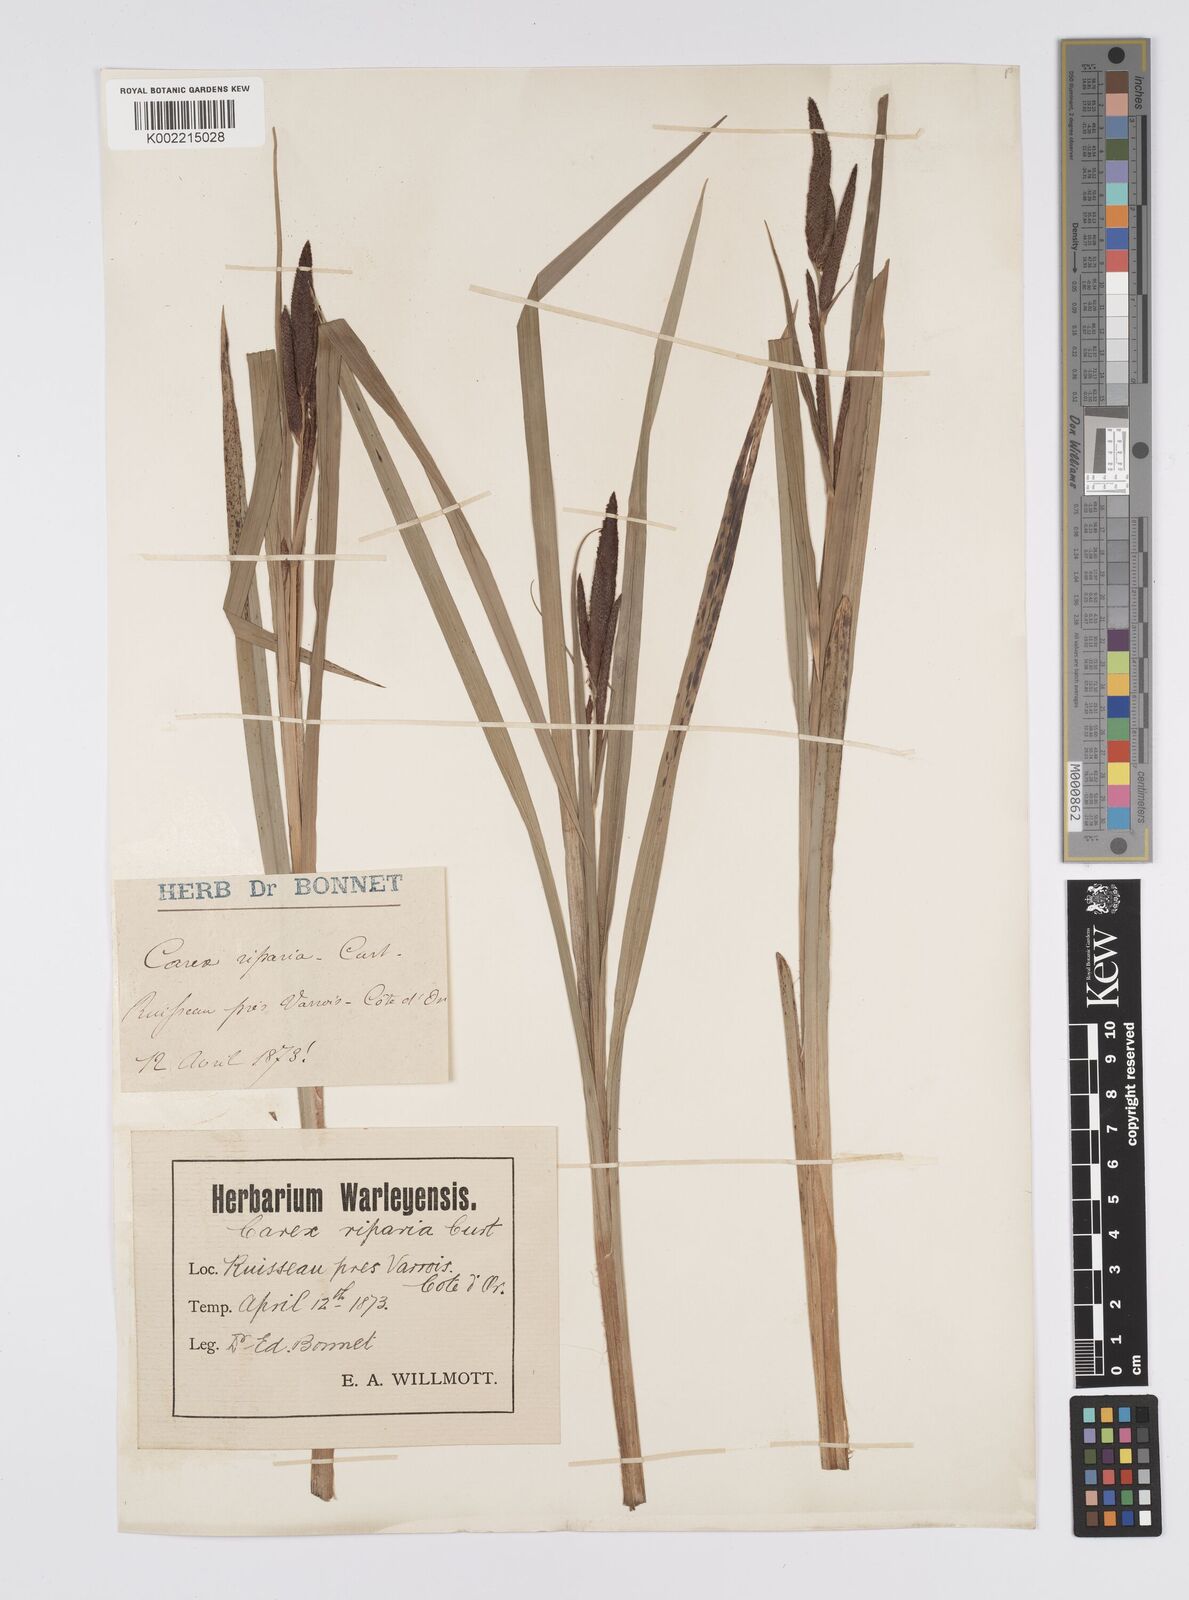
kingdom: Plantae
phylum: Tracheophyta
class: Liliopsida
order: Poales
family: Cyperaceae
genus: Carex
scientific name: Carex riparia
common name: Greater pond-sedge
